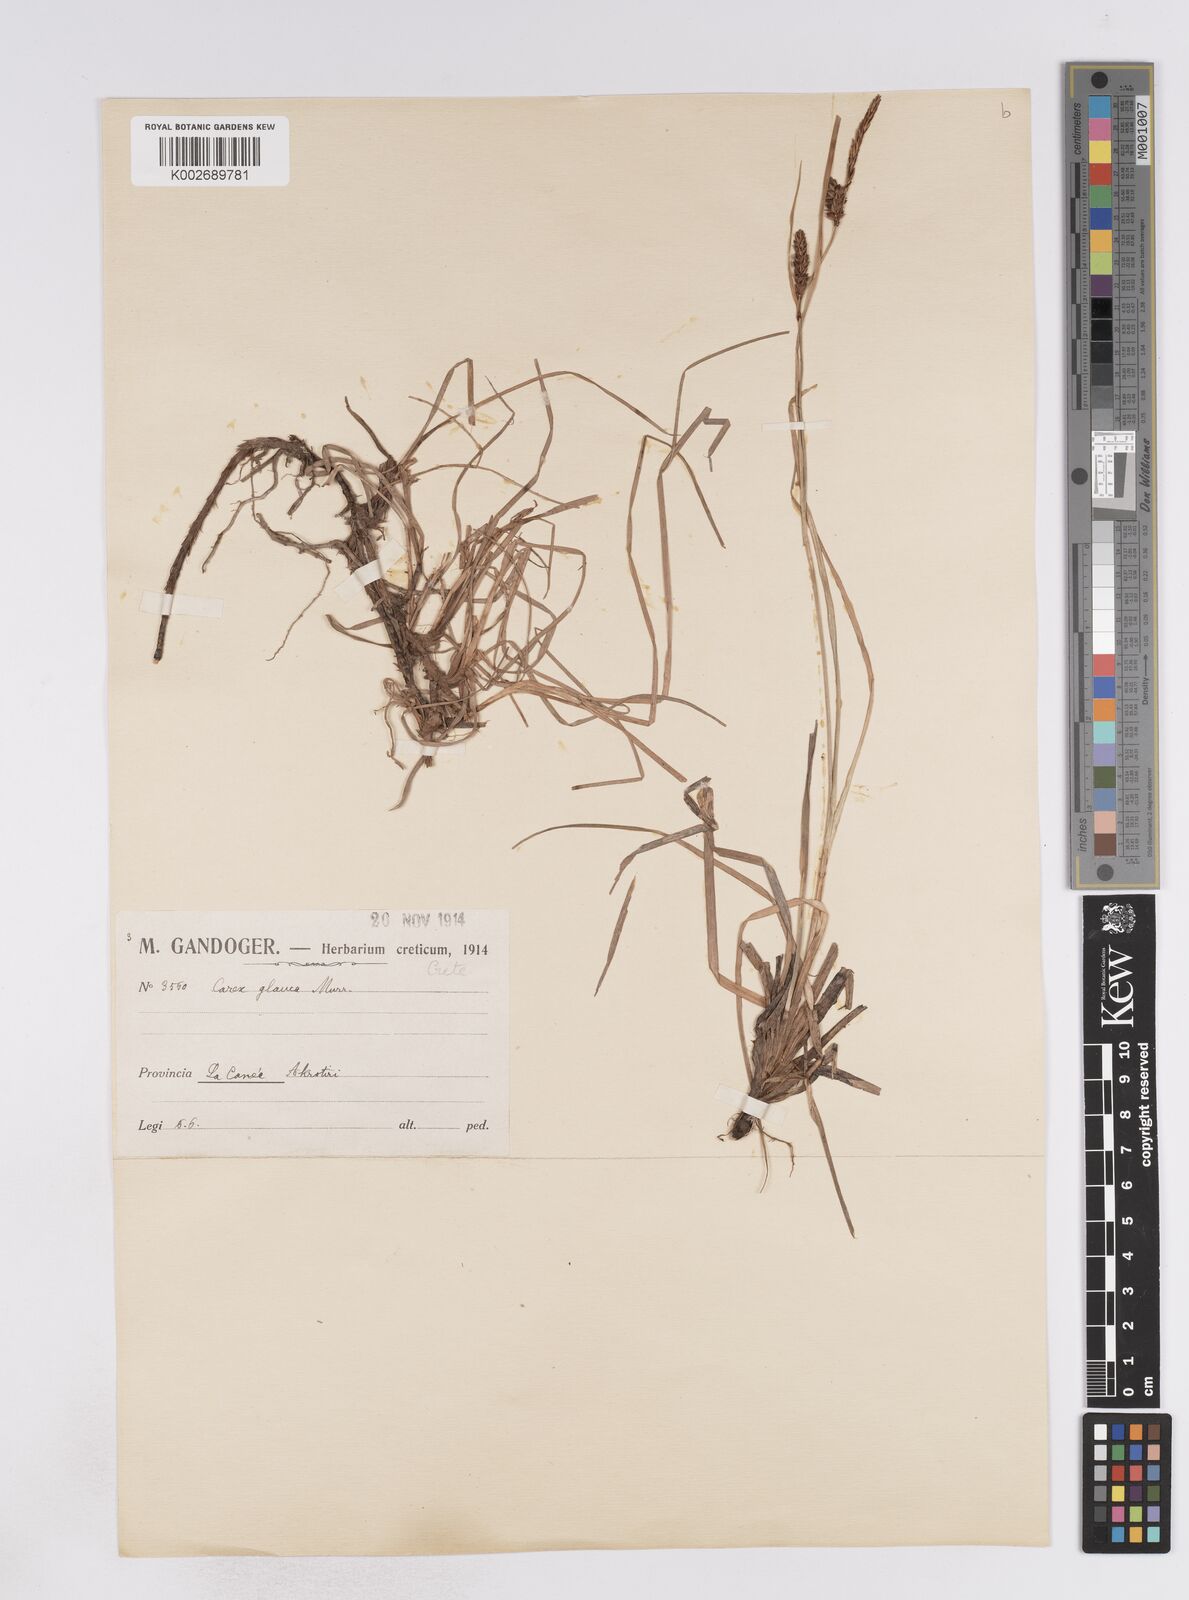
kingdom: Plantae
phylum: Tracheophyta
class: Liliopsida
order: Poales
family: Cyperaceae
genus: Carex
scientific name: Carex flacca
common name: Glaucous sedge
